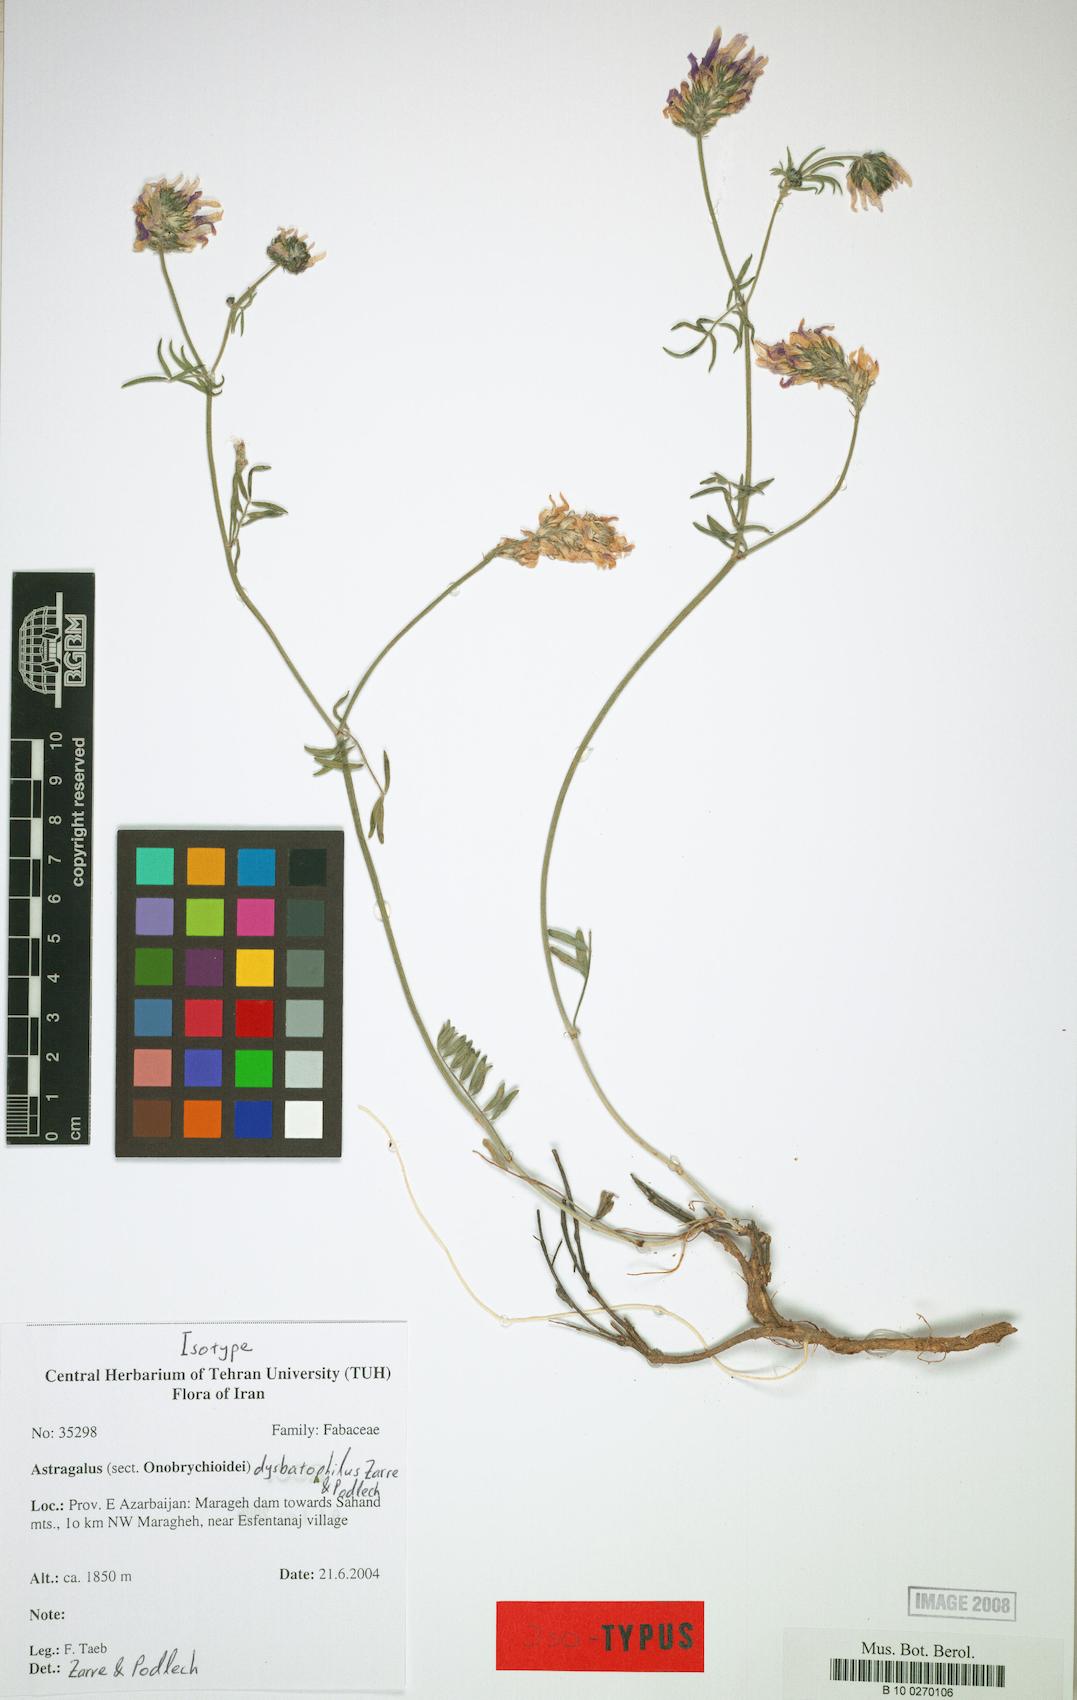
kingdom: Plantae
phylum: Tracheophyta
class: Magnoliopsida
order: Fabales
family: Fabaceae
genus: Astragalus
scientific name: Astragalus dysbatophilus
